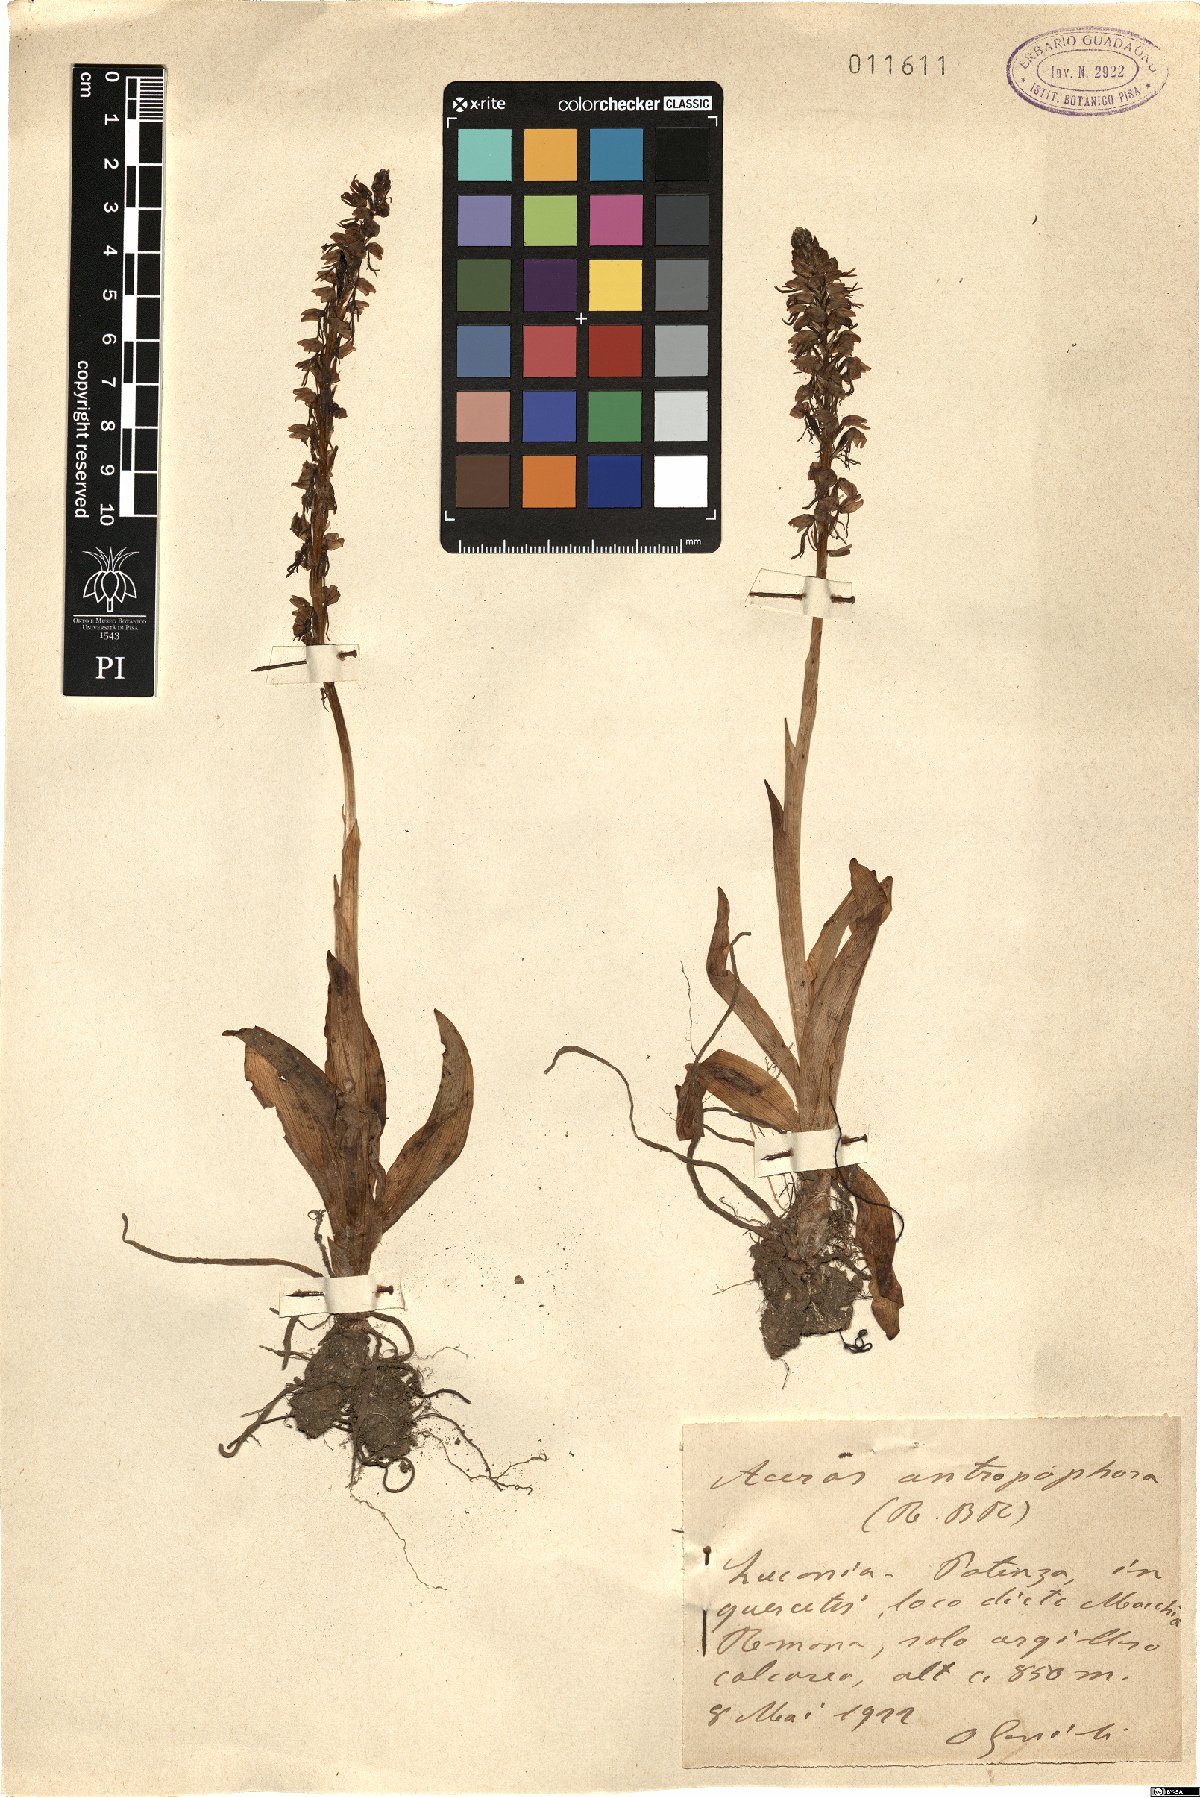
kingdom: Plantae
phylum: Tracheophyta
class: Liliopsida
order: Asparagales
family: Orchidaceae
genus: Orchis
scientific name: Orchis anthropophora
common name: Man orchid
